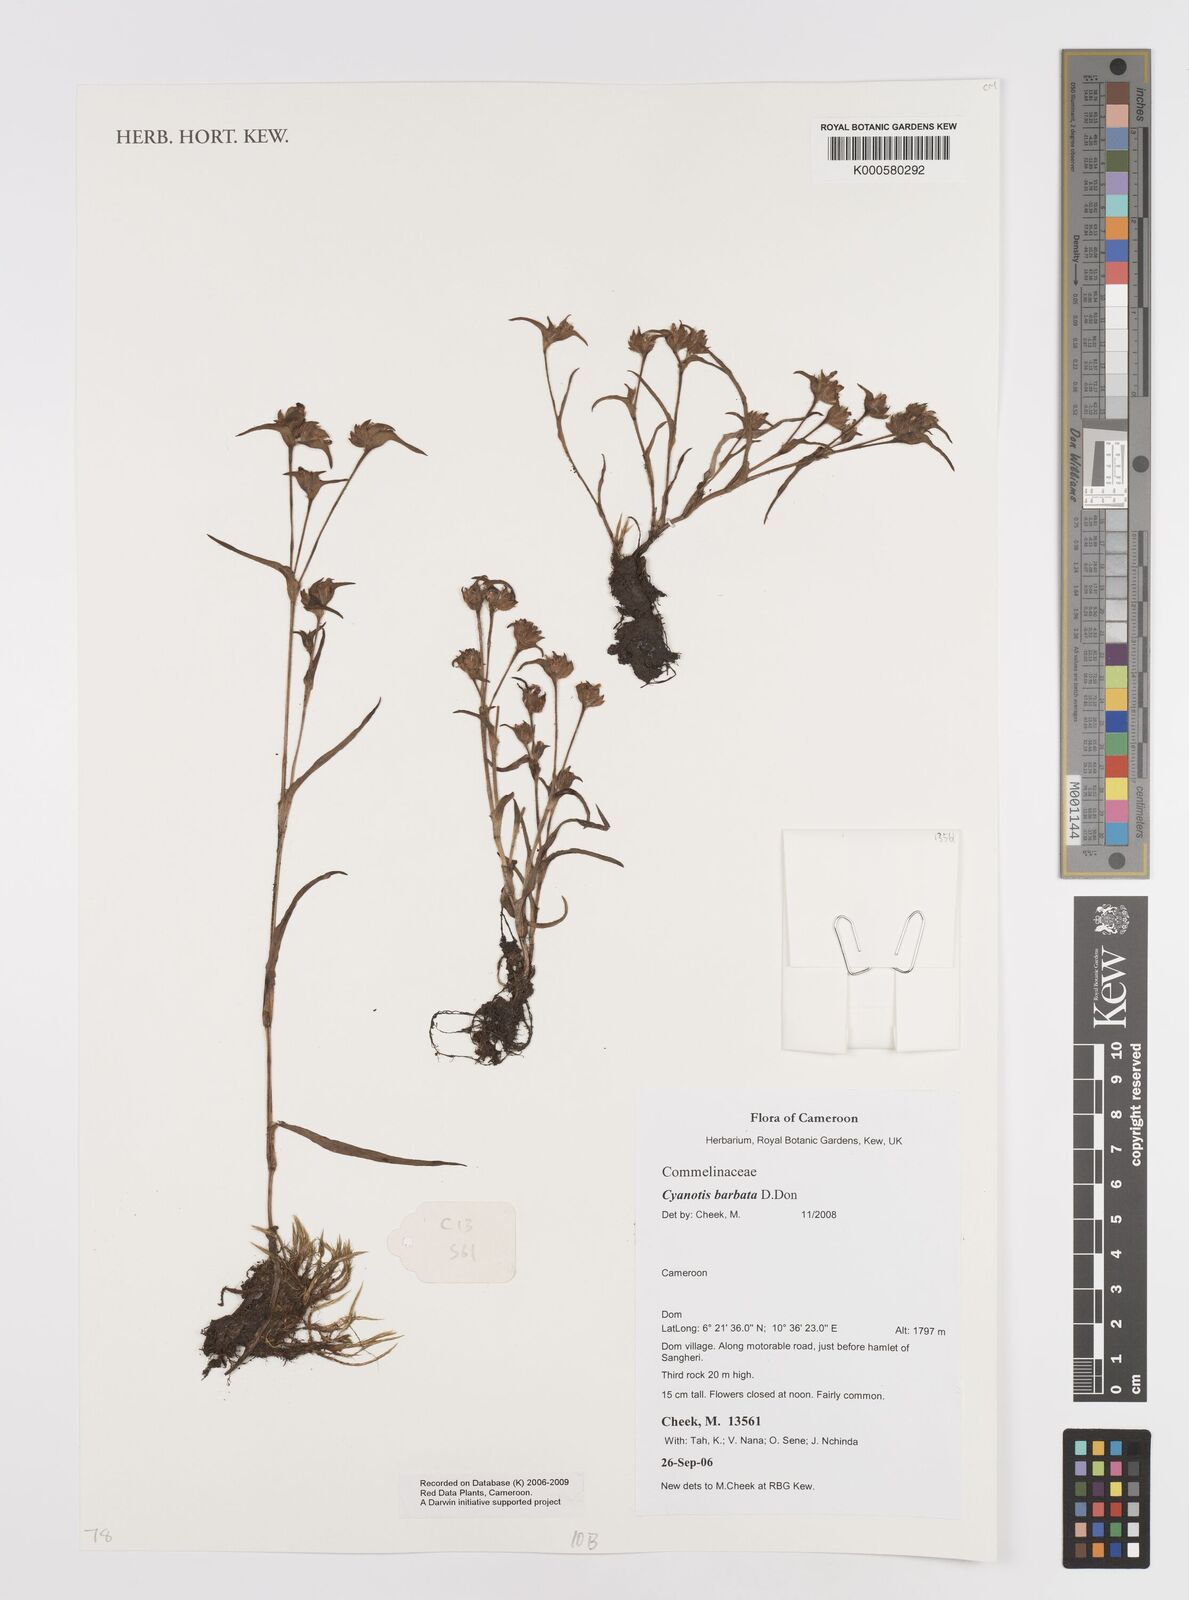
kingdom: Plantae
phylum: Tracheophyta
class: Liliopsida
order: Commelinales
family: Commelinaceae
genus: Cyanotis
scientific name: Cyanotis vaga
